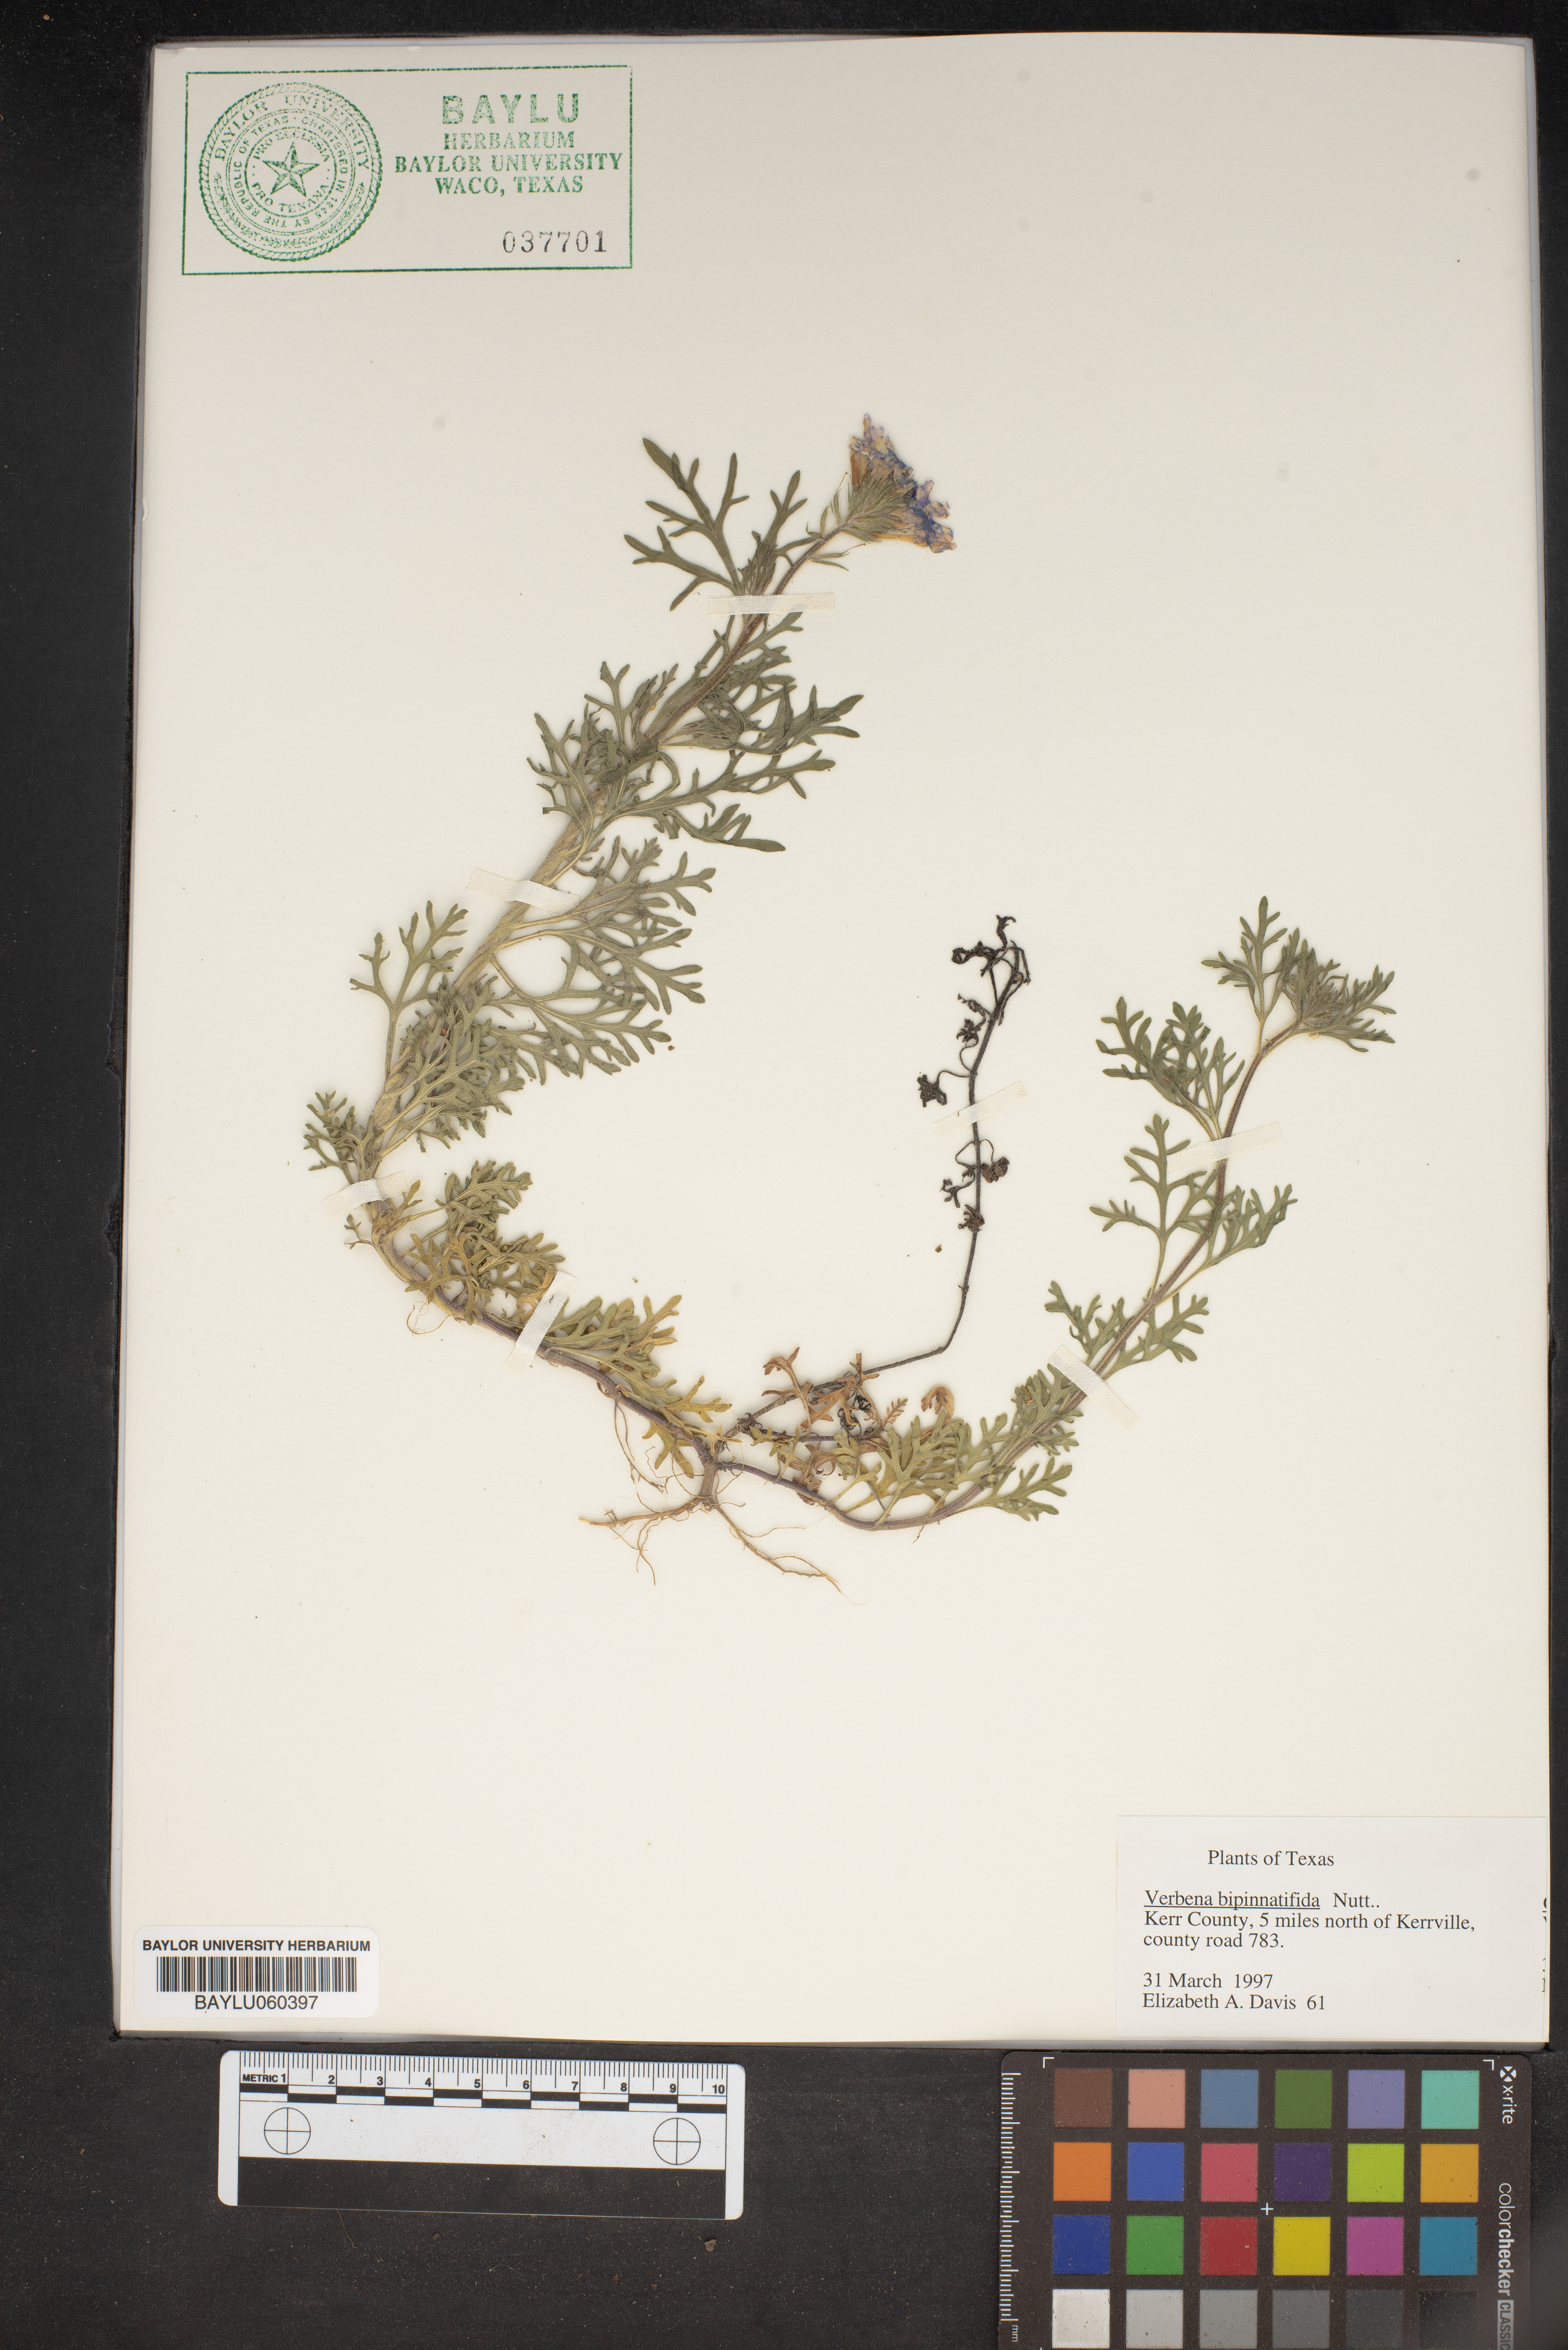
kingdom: Plantae
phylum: Tracheophyta
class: Magnoliopsida
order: Lamiales
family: Verbenaceae
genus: Verbena
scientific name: Verbena bipinnatifida
